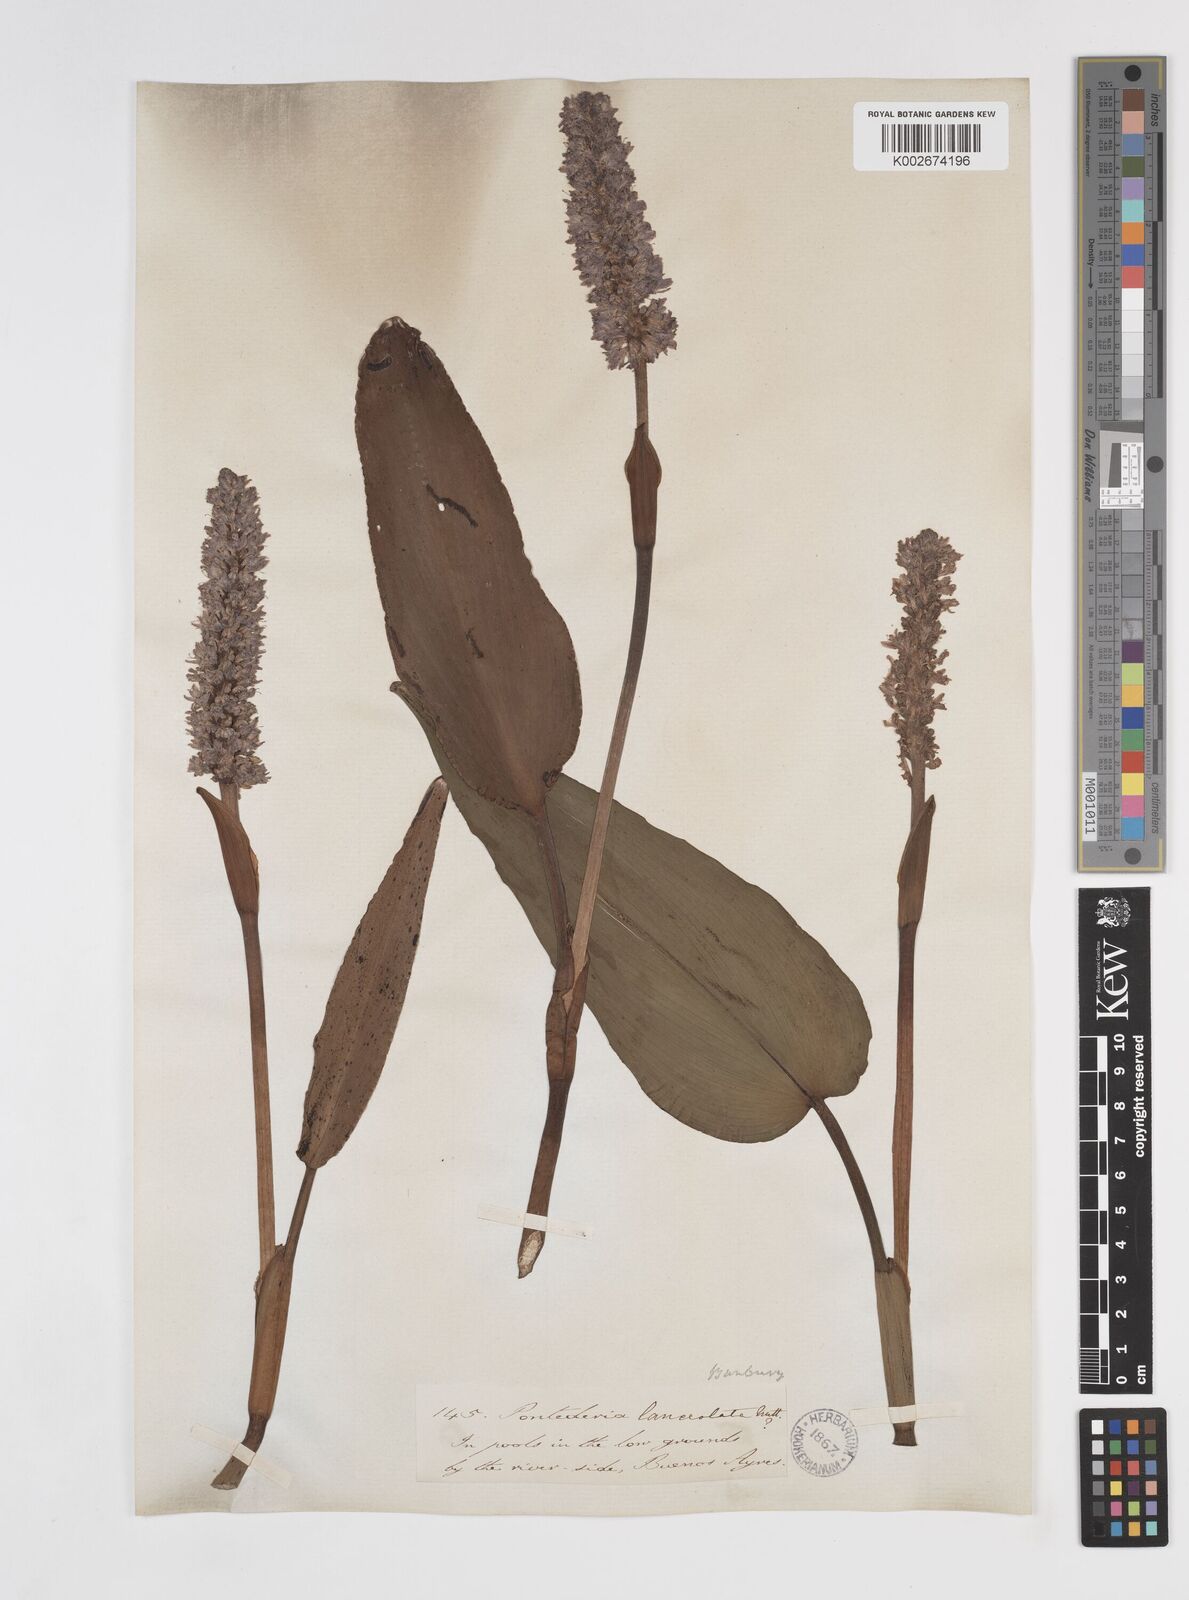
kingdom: Plantae
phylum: Tracheophyta
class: Liliopsida
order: Commelinales
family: Pontederiaceae
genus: Pontederia
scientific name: Pontederia
